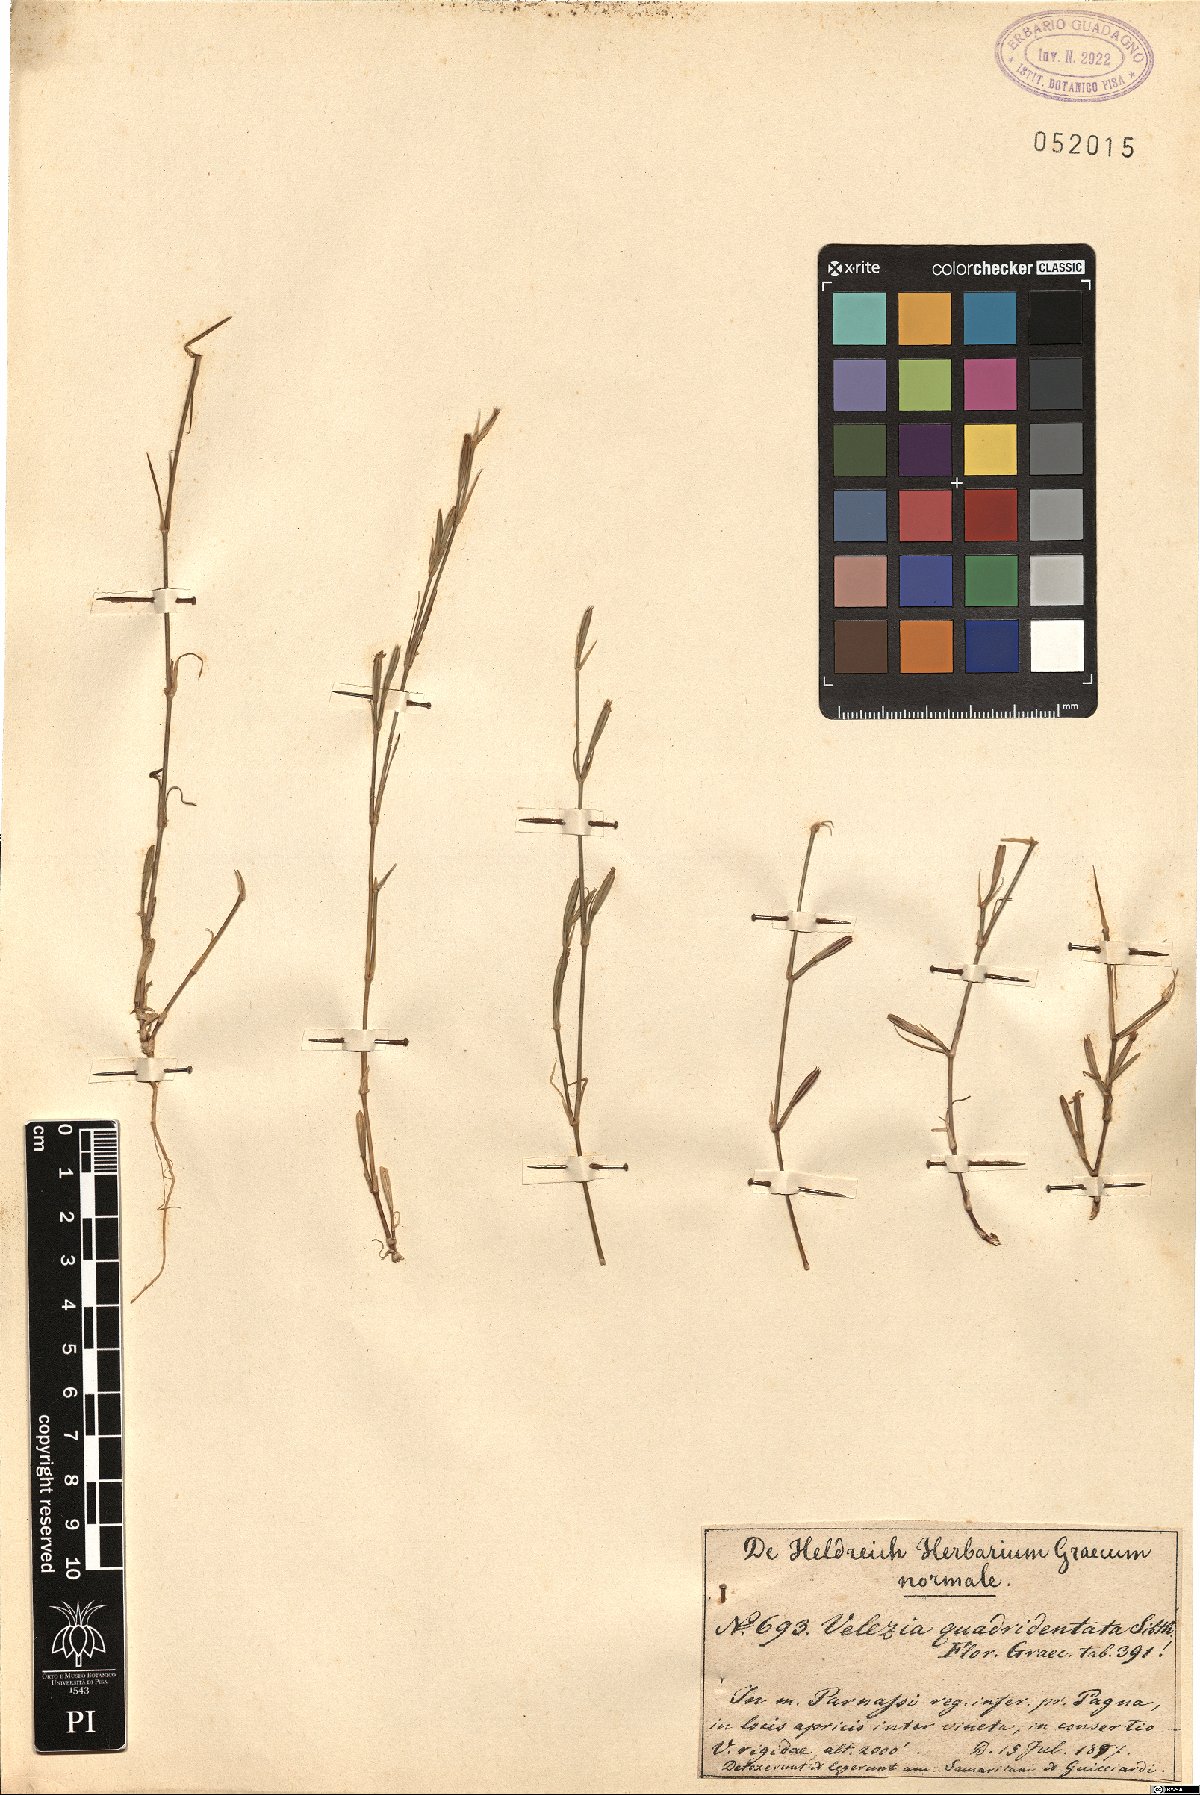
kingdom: Plantae
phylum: Tracheophyta
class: Magnoliopsida
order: Caryophyllales
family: Caryophyllaceae
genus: Dianthus
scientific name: Dianthus quadridentatus
